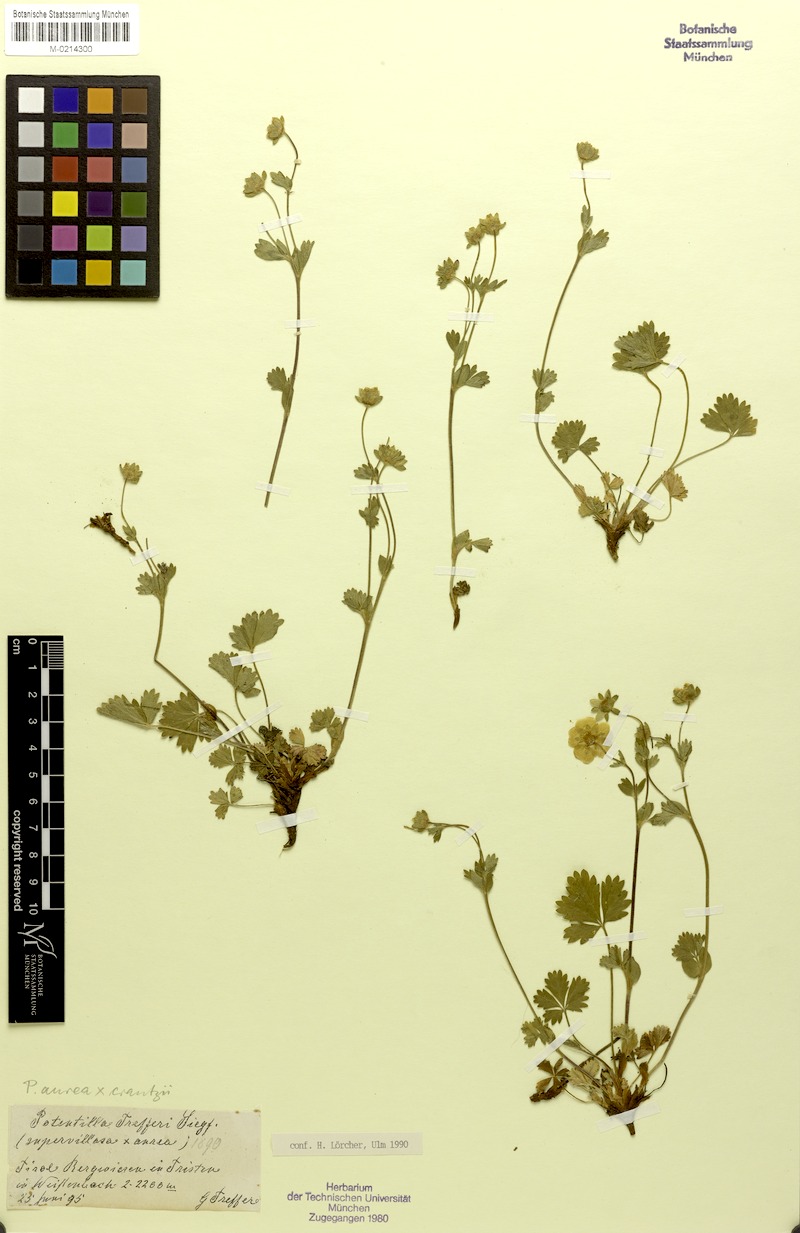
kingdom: Plantae
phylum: Tracheophyta
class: Magnoliopsida
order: Rosales
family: Rosaceae
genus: Potentilla
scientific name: Potentilla aurea
